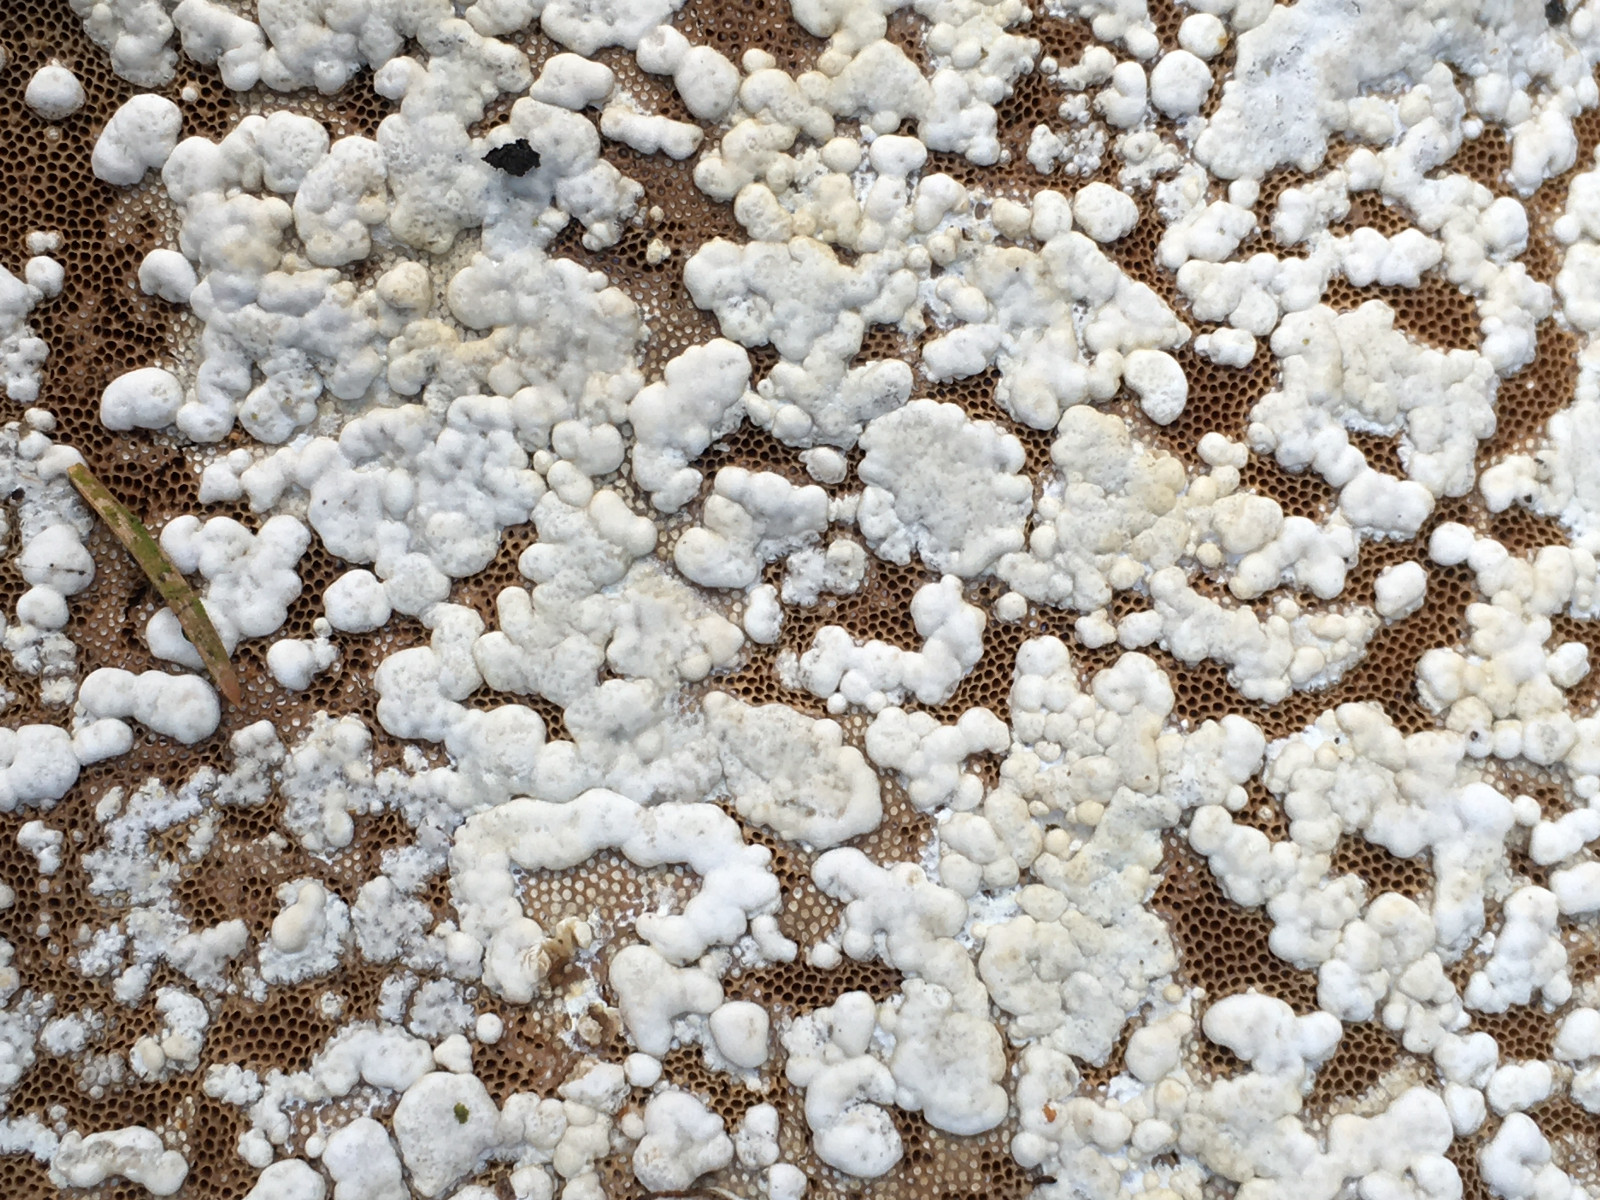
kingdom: Fungi
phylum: Ascomycota
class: Sordariomycetes
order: Hypocreales
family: Hypocreaceae
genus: Trichoderma
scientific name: Trichoderma pulvinatum
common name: snyltende kødkerne
